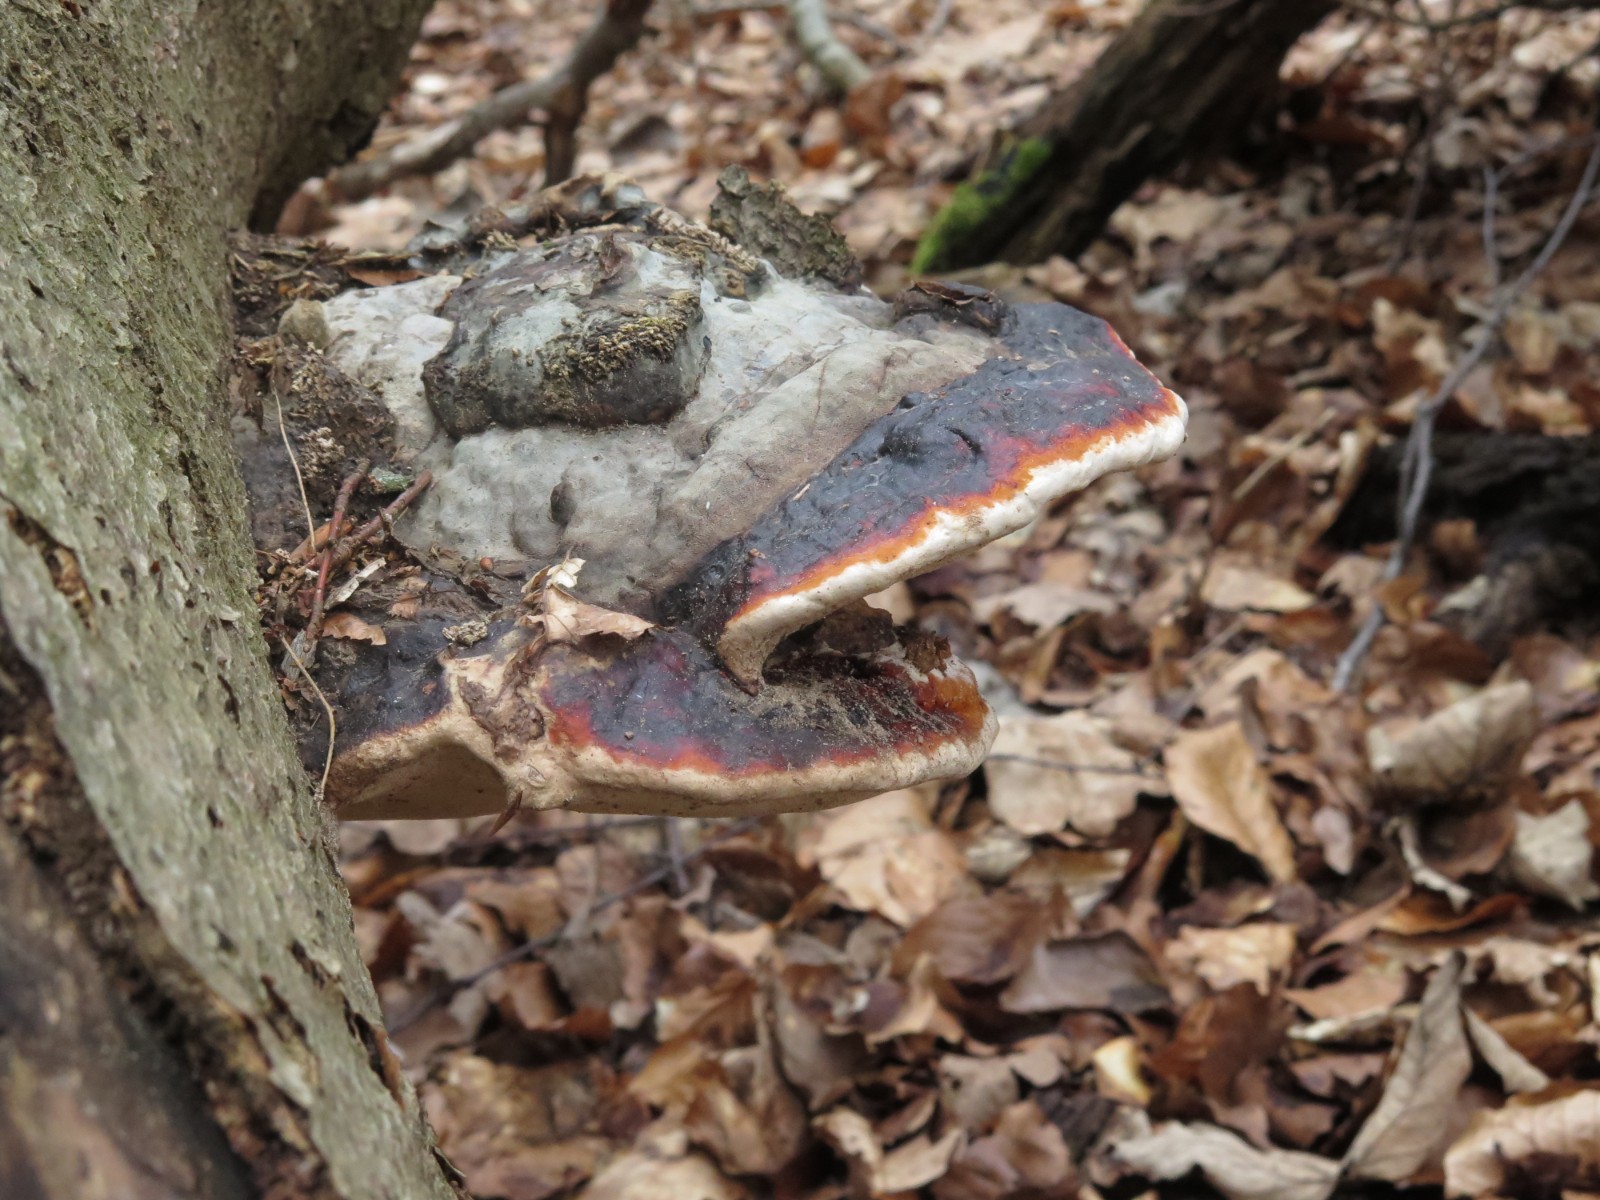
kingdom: Fungi
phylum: Basidiomycota
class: Agaricomycetes
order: Polyporales
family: Fomitopsidaceae
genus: Fomitopsis
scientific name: Fomitopsis pinicola
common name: randbæltet hovporesvamp
